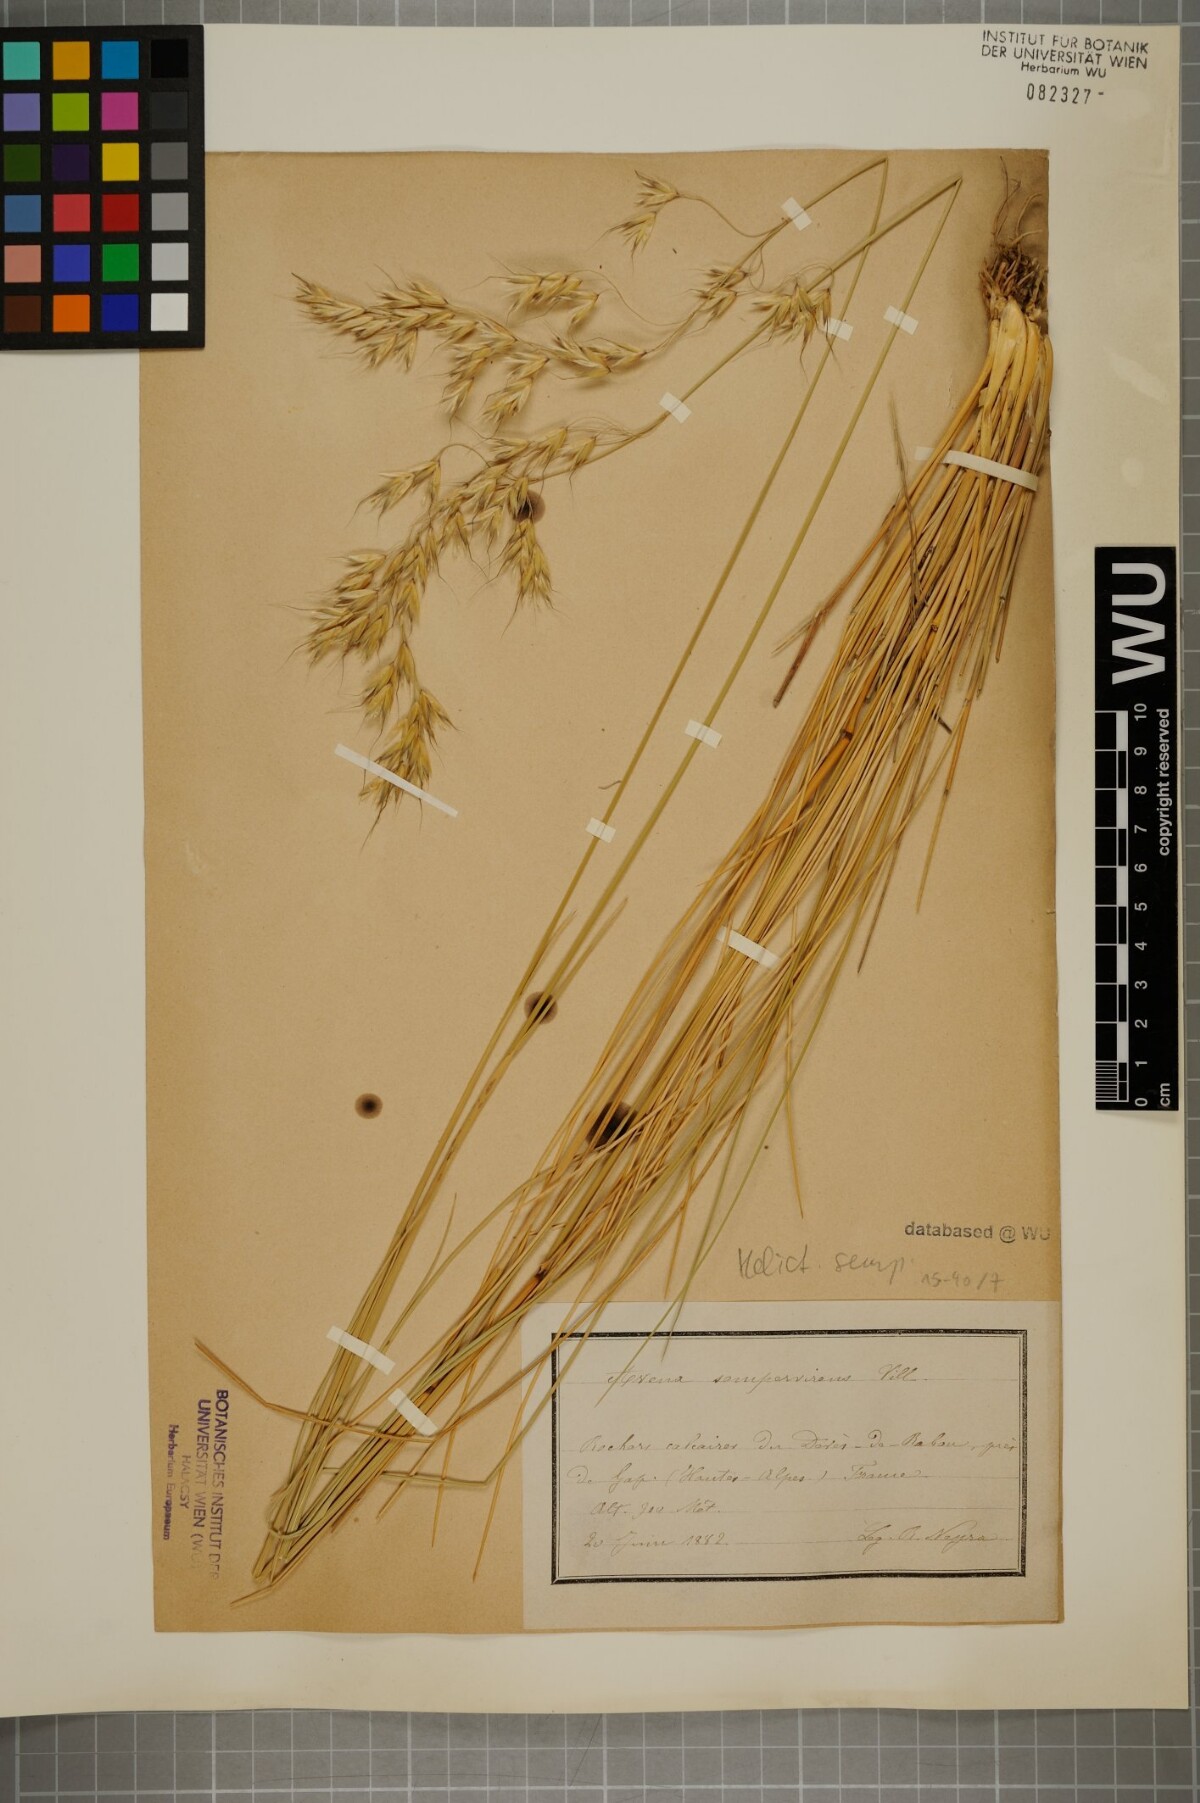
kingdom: Plantae
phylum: Tracheophyta
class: Liliopsida
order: Poales
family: Poaceae
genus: Helictotrichon
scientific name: Helictotrichon sempervirens
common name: Blue oat-grass
